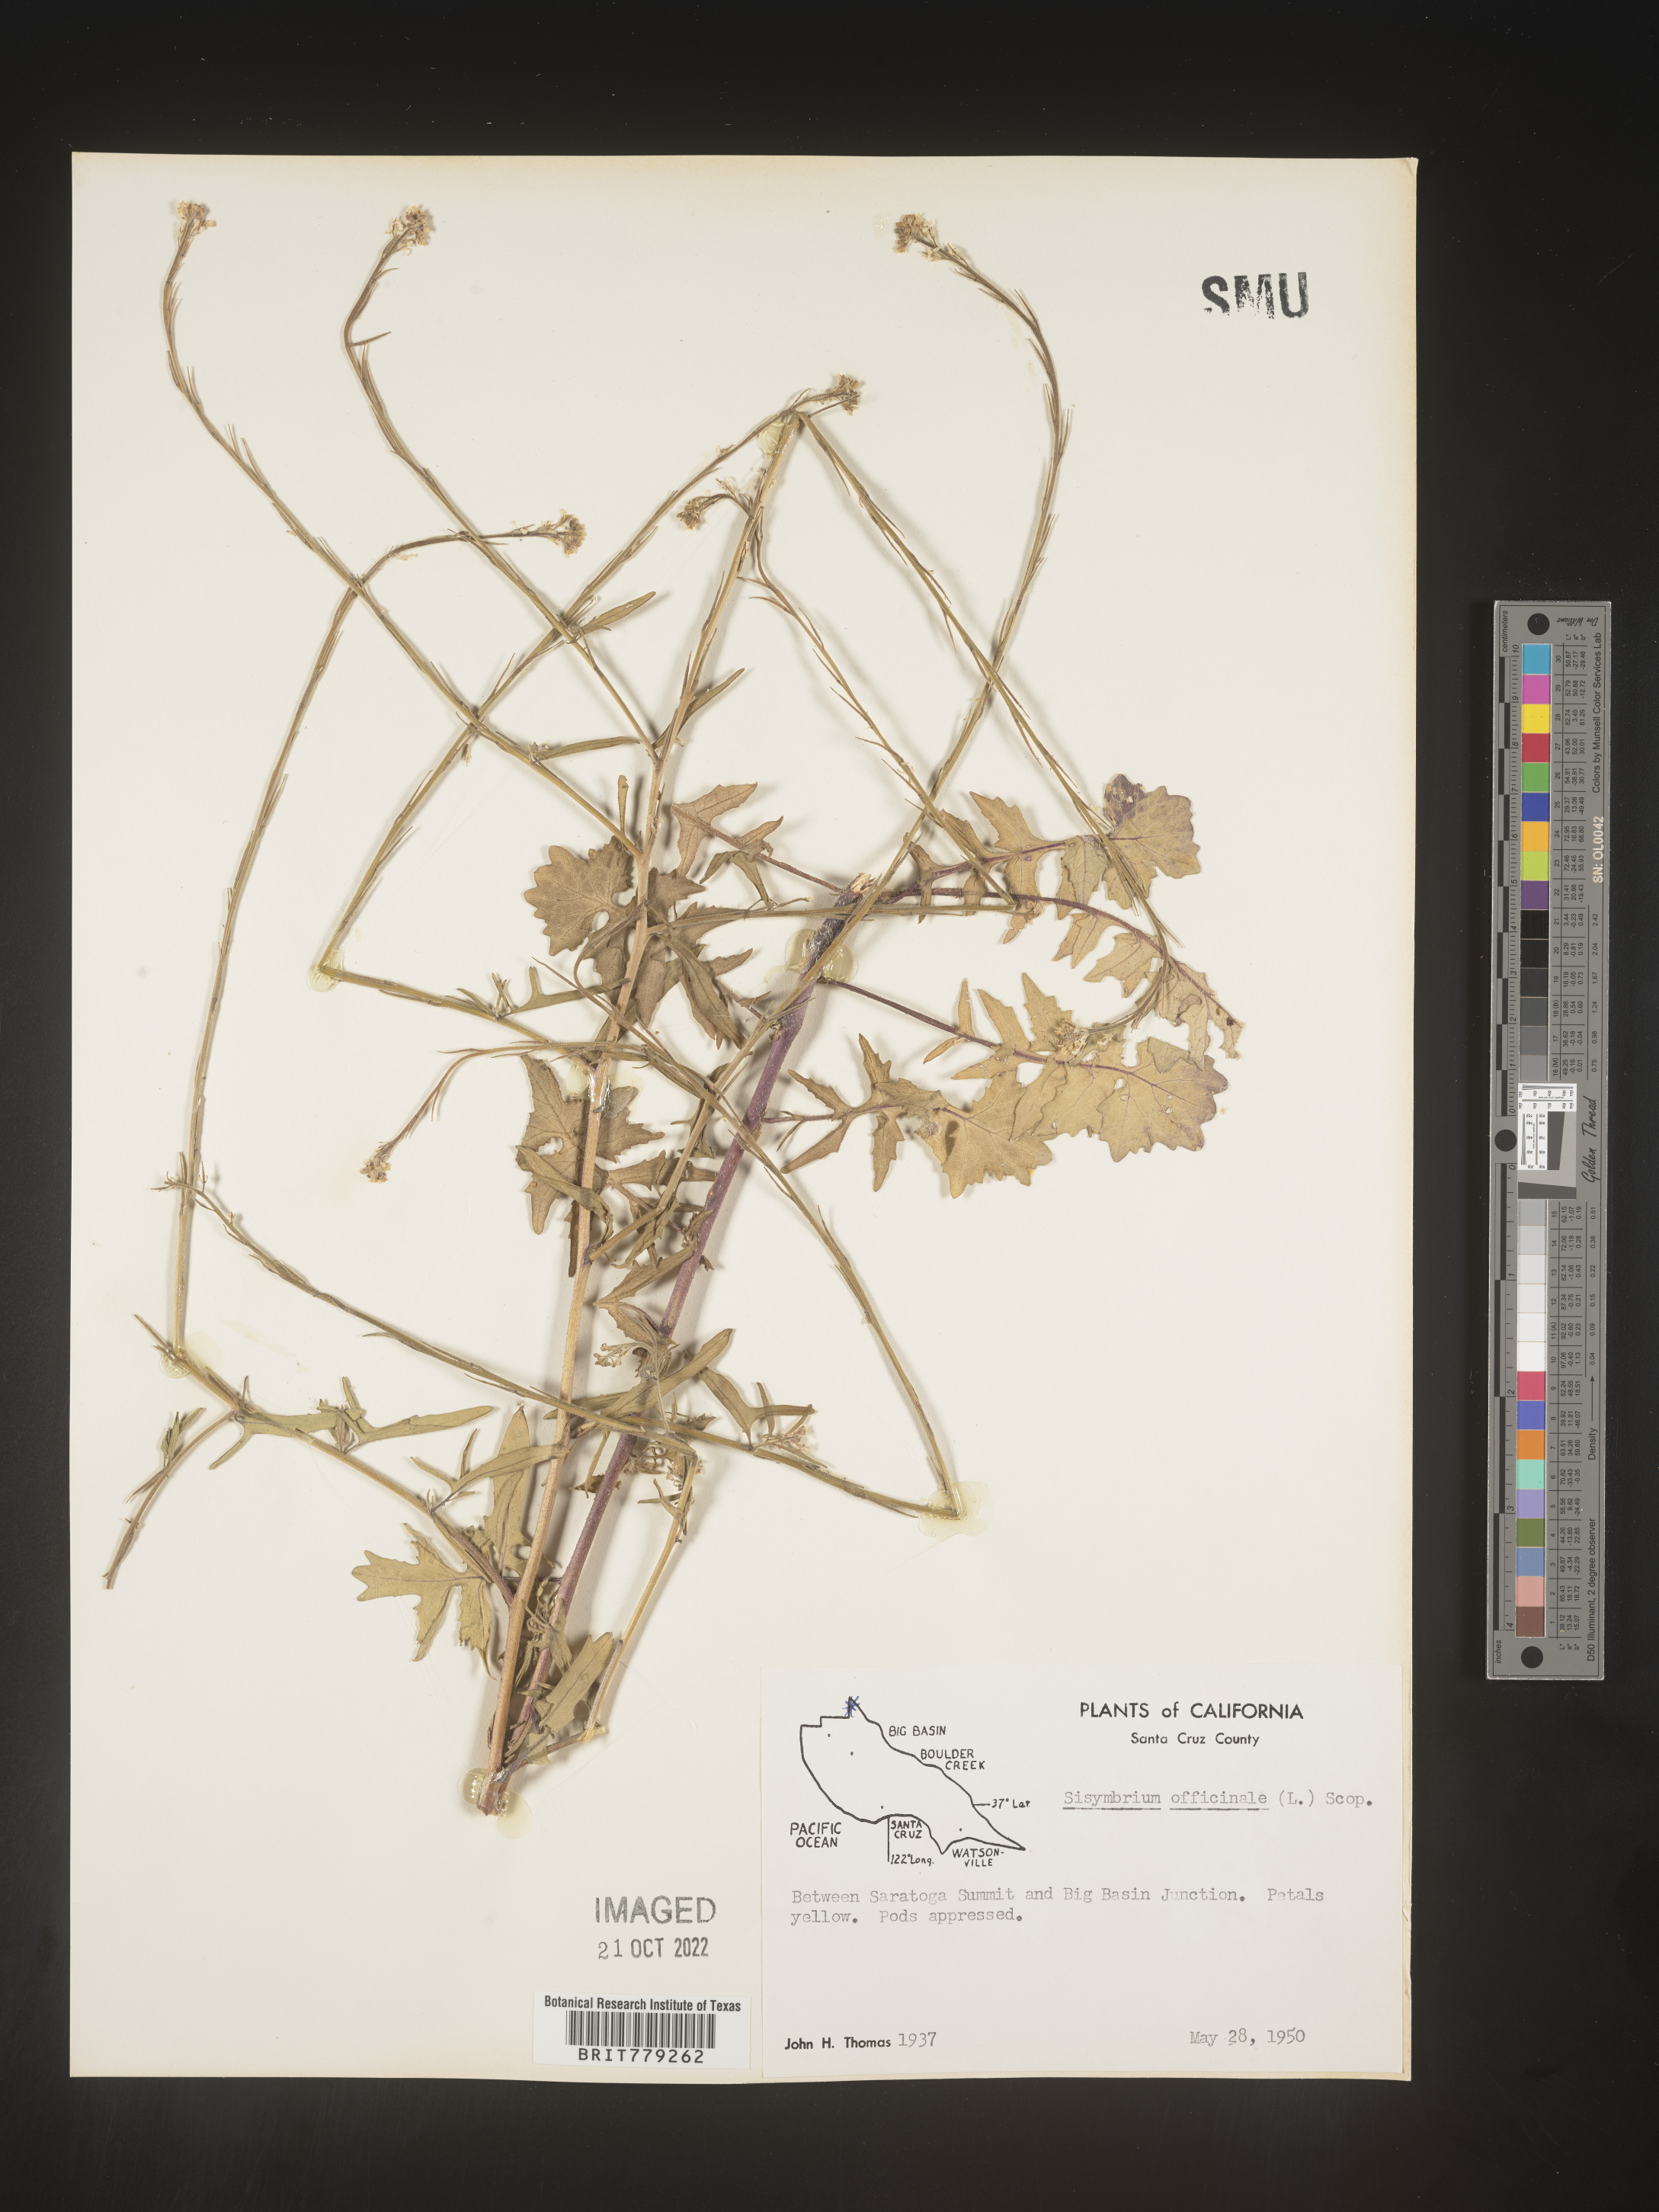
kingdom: Plantae
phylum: Tracheophyta
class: Magnoliopsida
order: Brassicales
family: Brassicaceae
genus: Sisymbrium
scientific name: Sisymbrium officinale
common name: Hedge mustard
